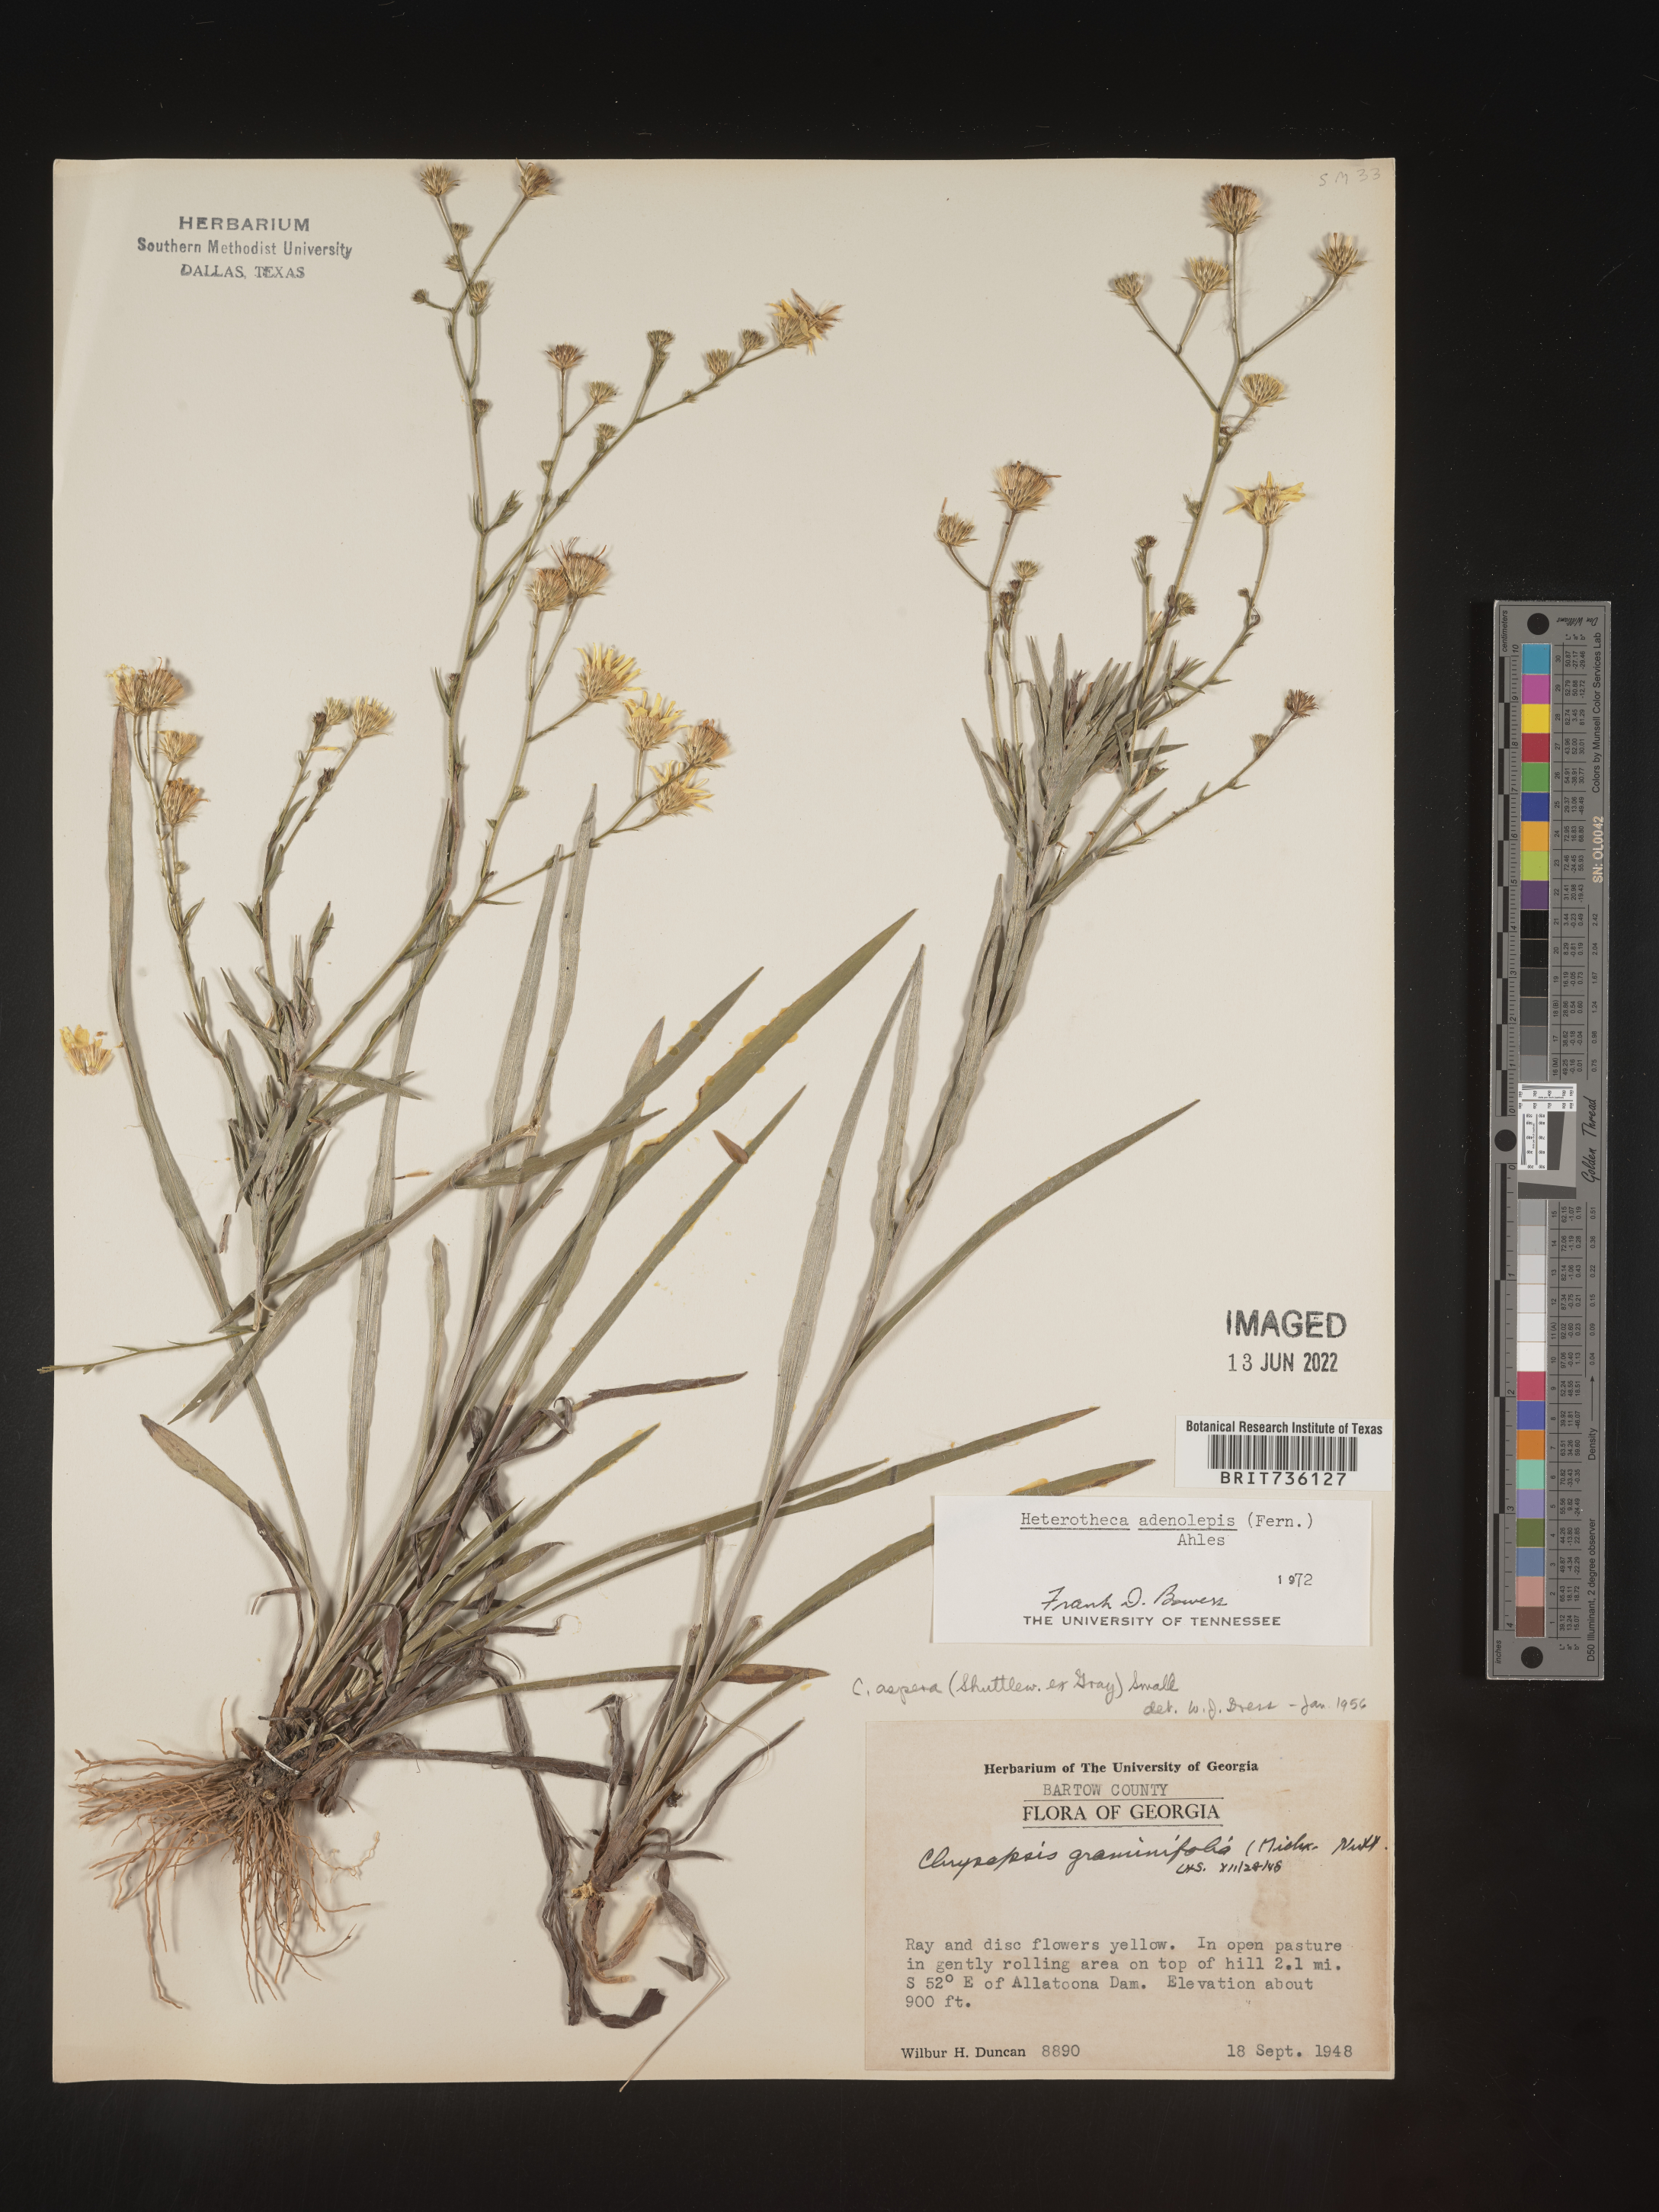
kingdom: Plantae
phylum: Tracheophyta
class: Magnoliopsida
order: Asterales
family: Asteraceae
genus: Pityopsis
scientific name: Pityopsis aspera
